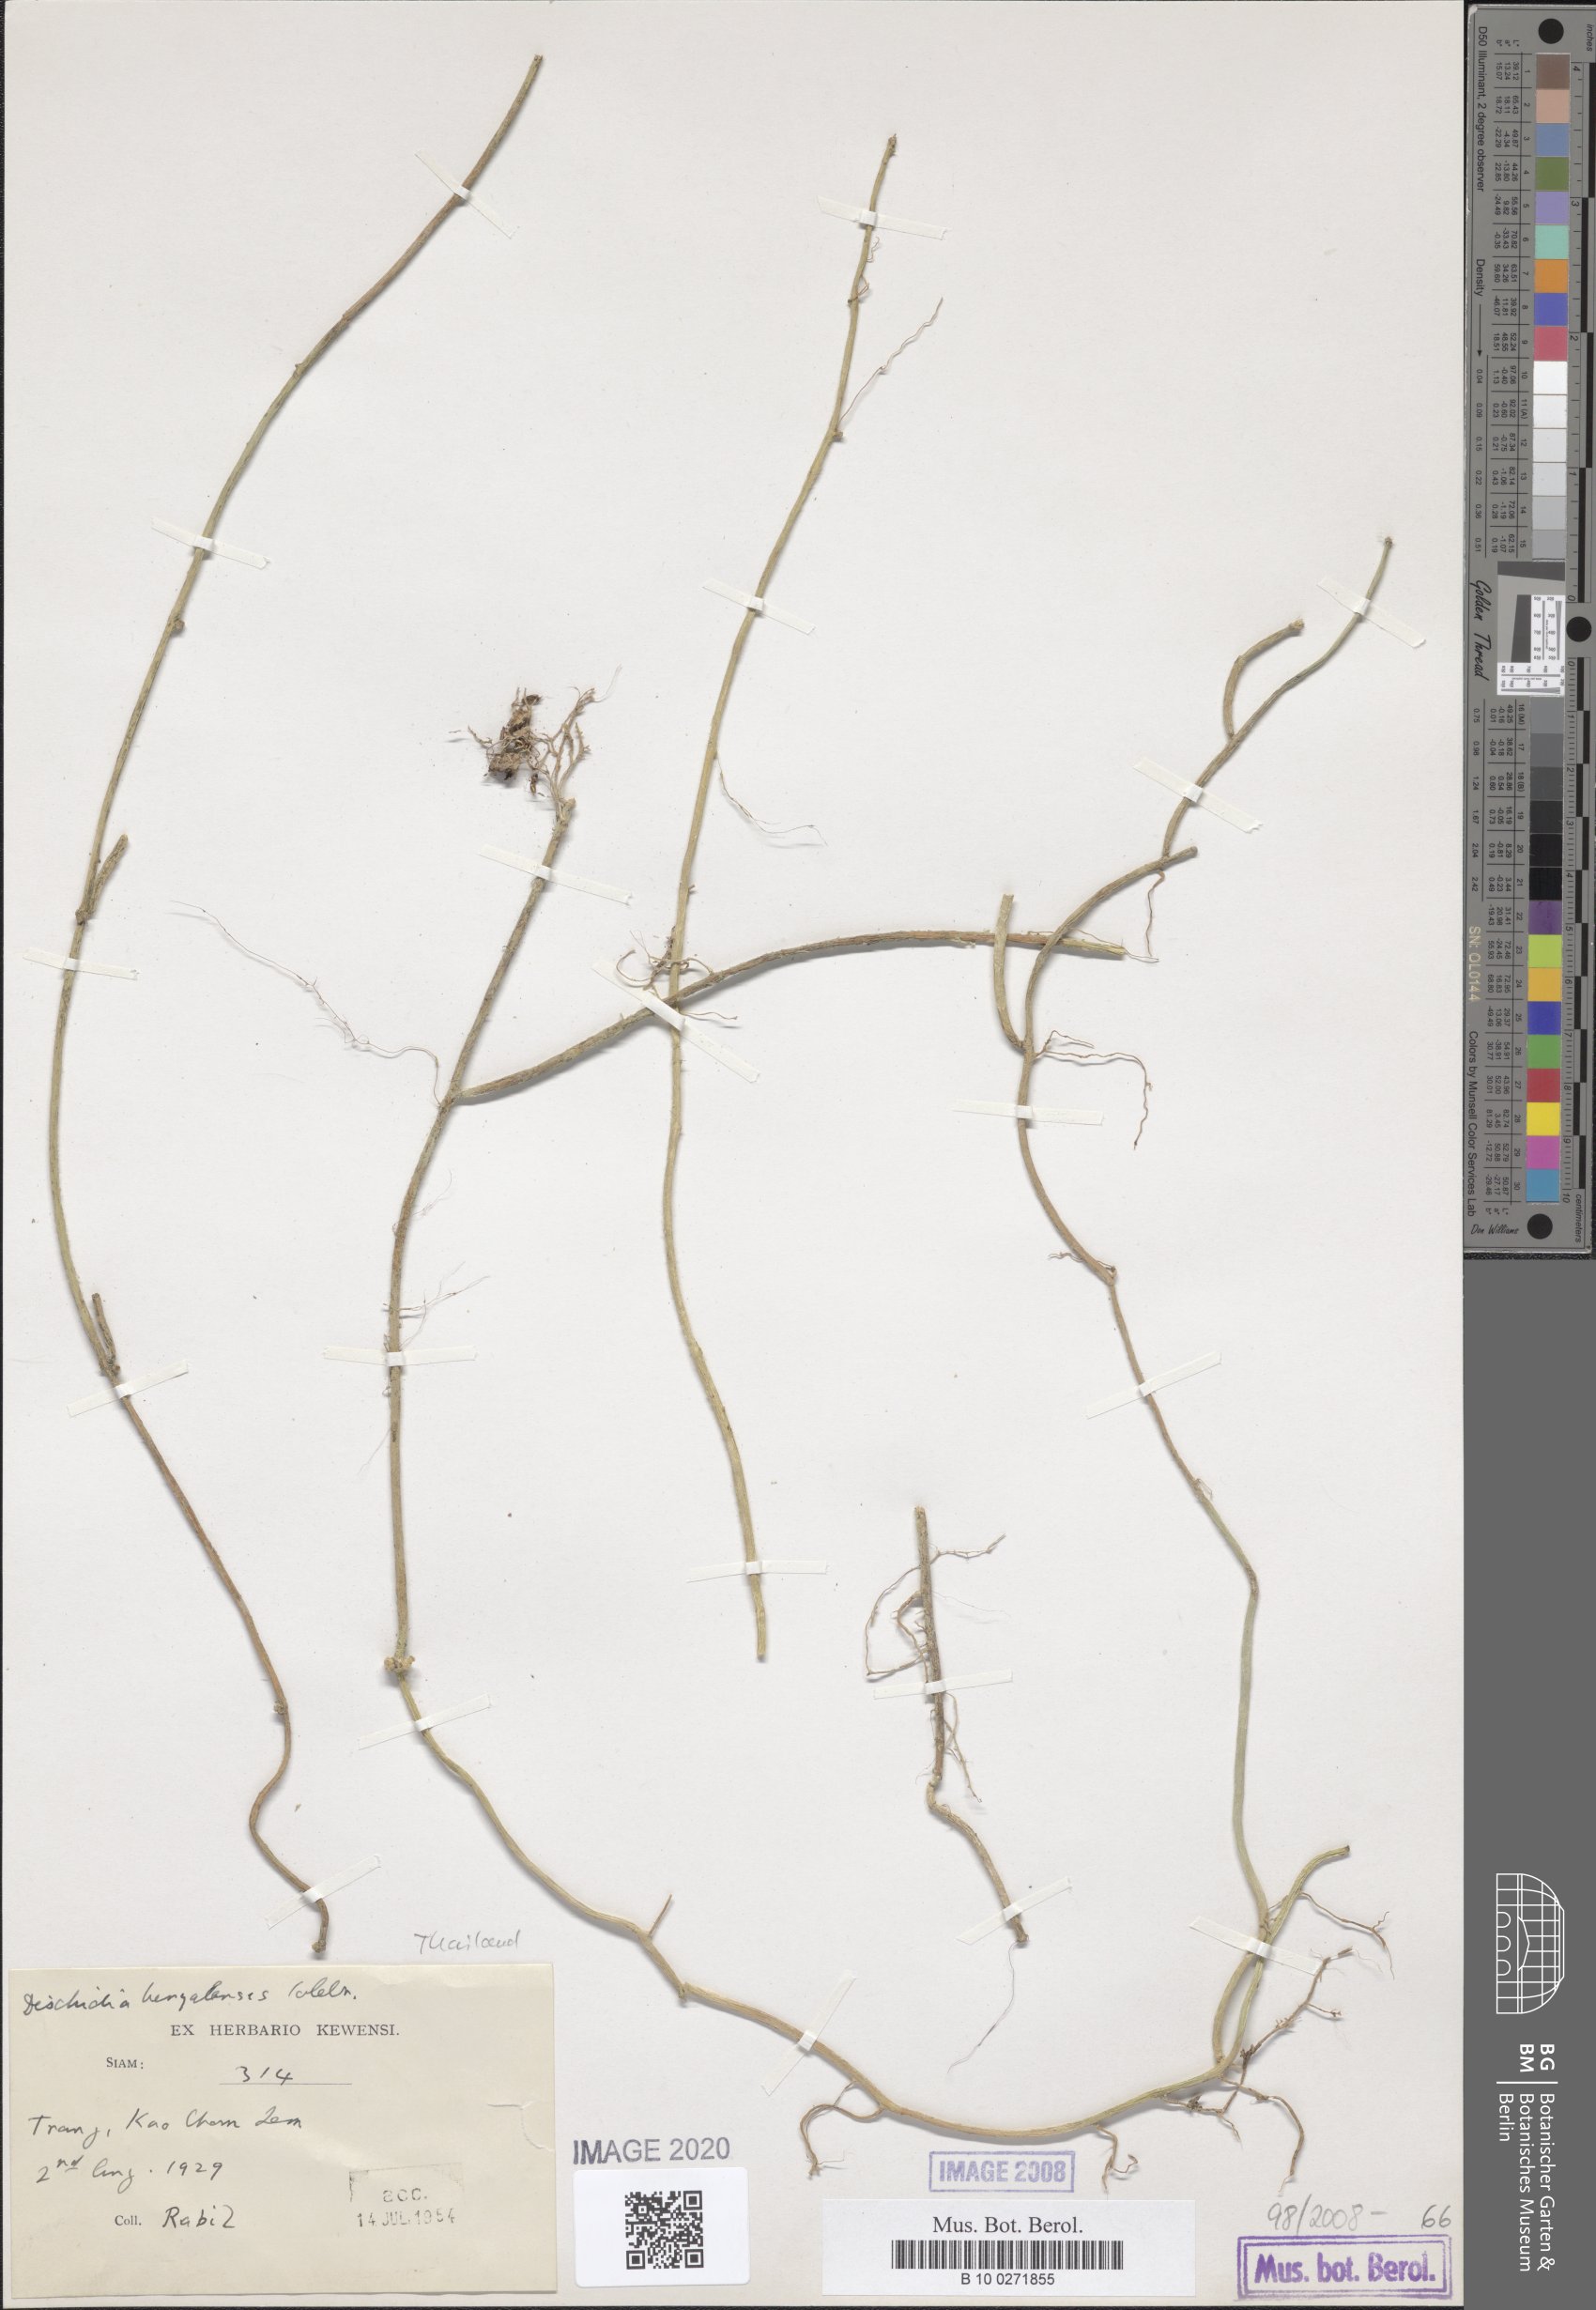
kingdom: Plantae
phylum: Tracheophyta
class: Magnoliopsida
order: Gentianales
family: Apocynaceae
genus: Dischidia
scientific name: Dischidia bengalensis
